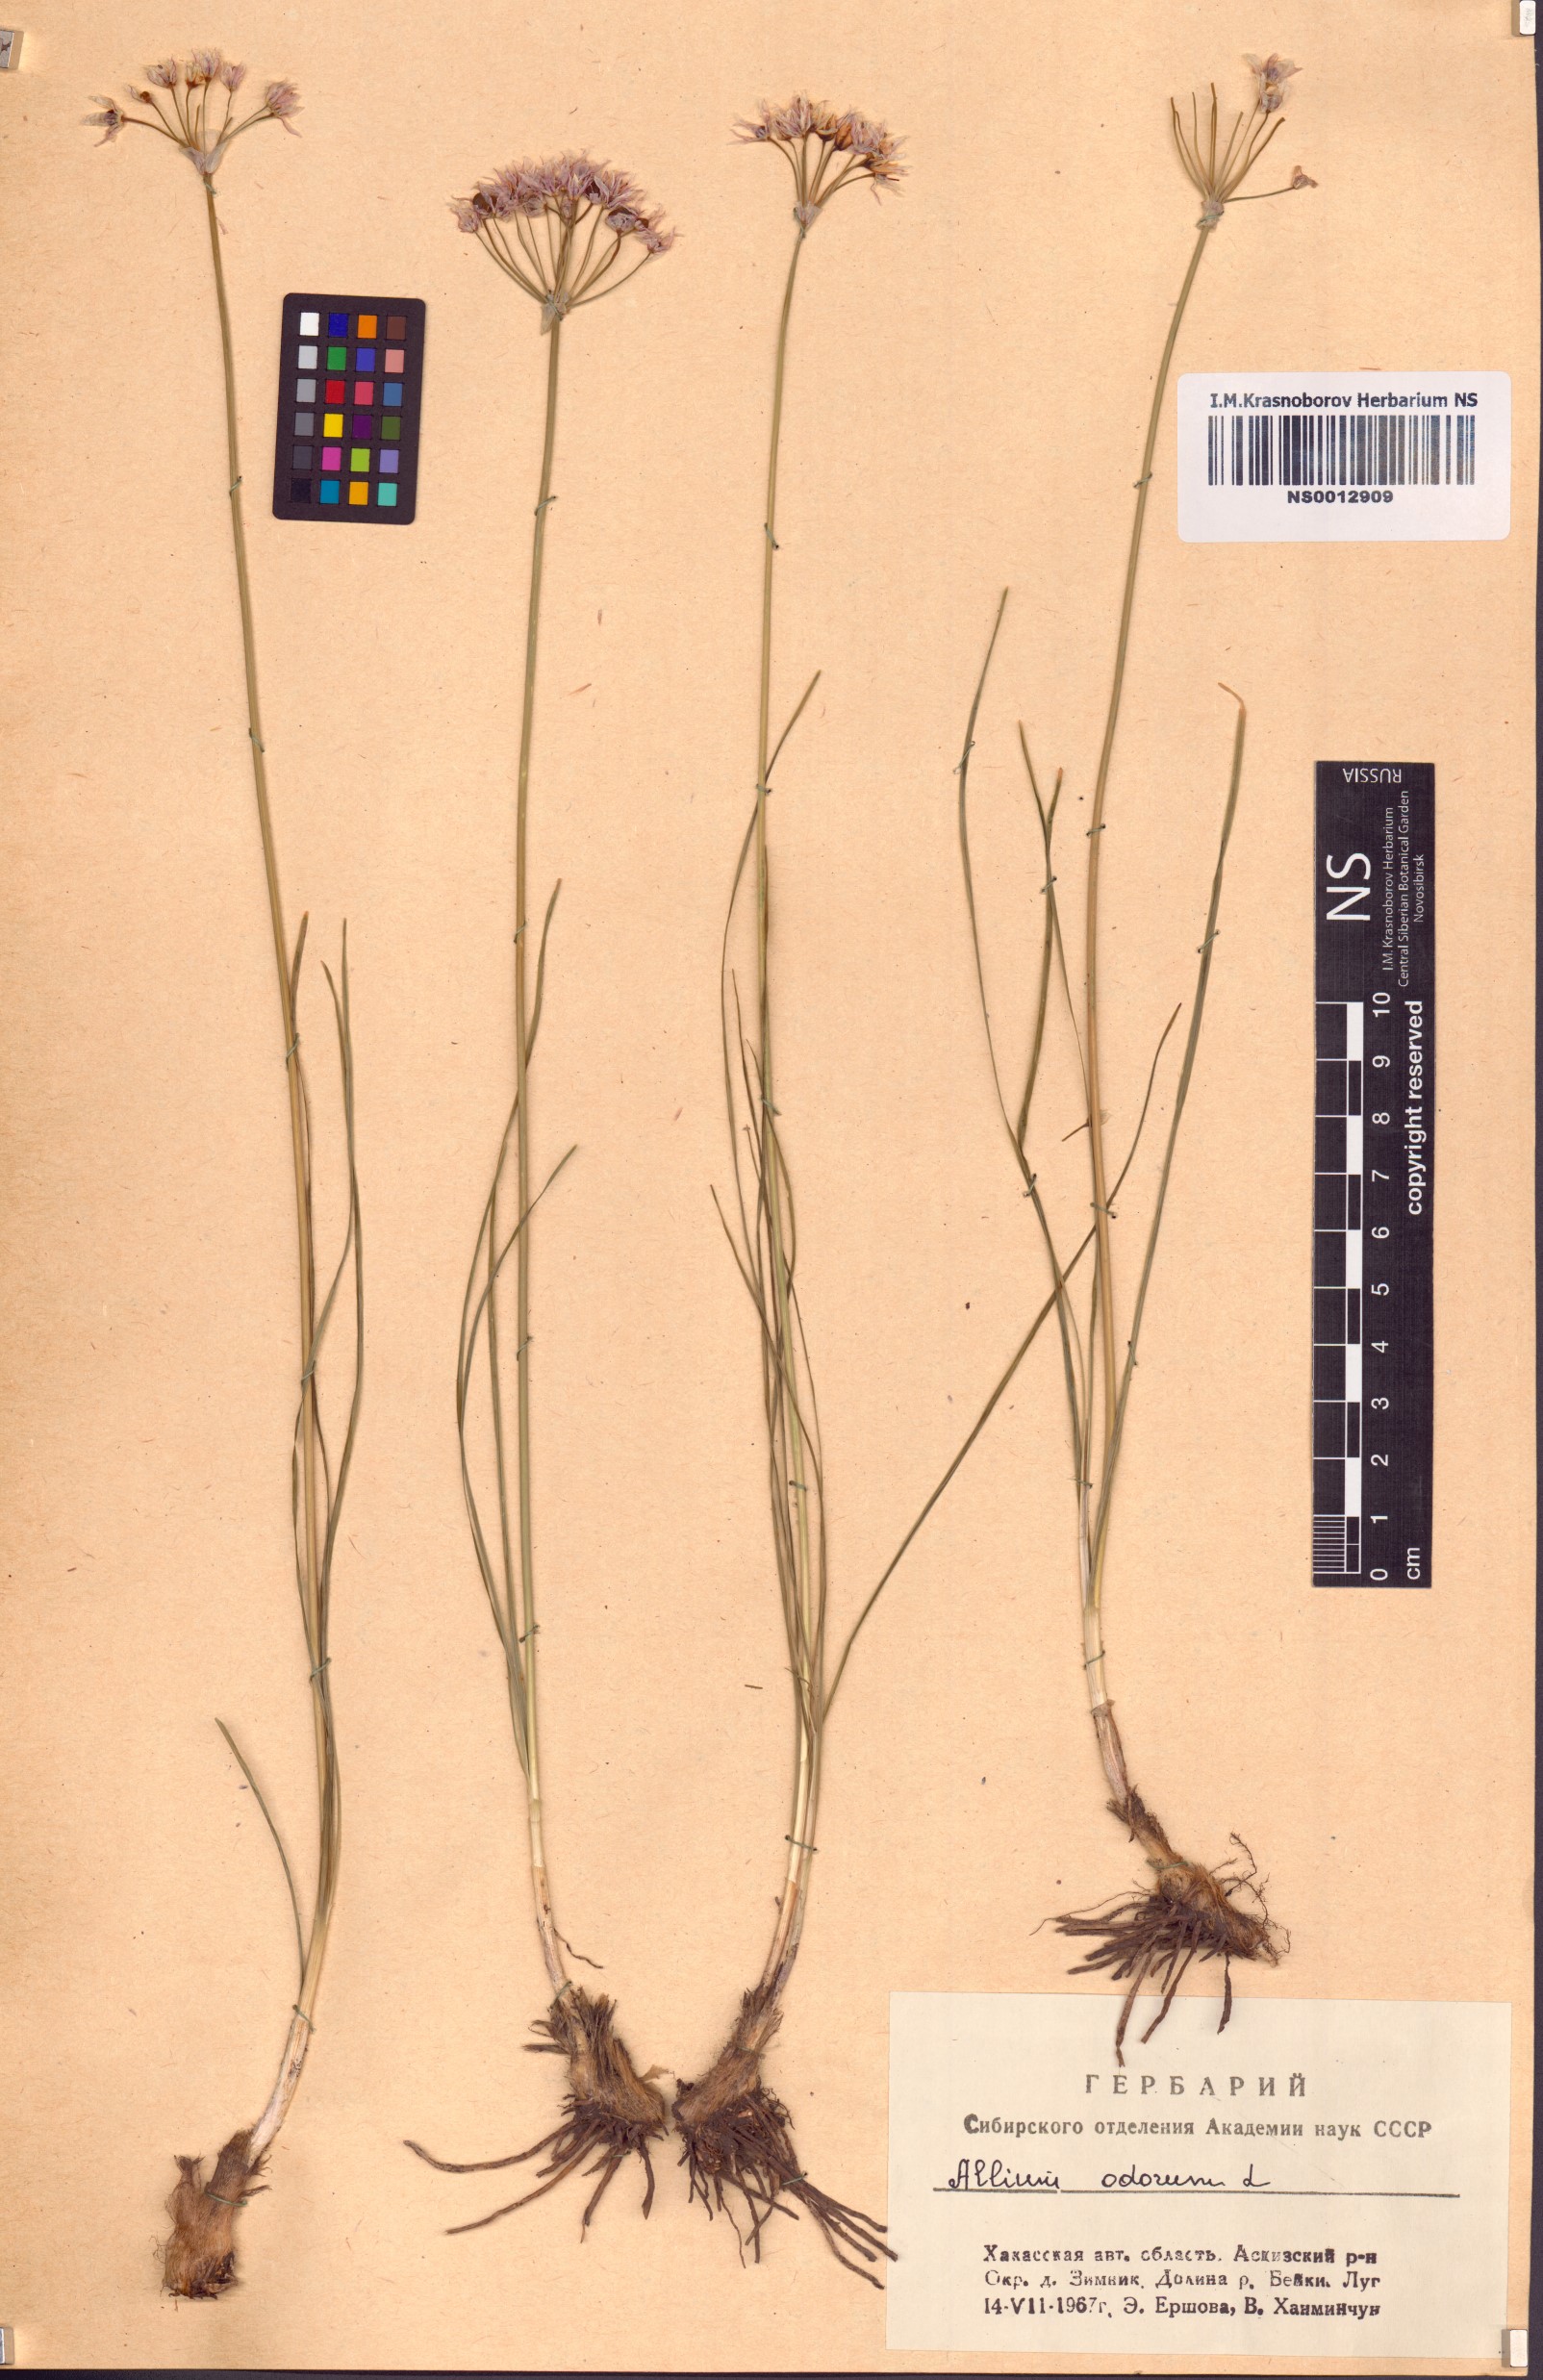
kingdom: Plantae
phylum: Tracheophyta
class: Liliopsida
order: Asparagales
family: Amaryllidaceae
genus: Allium
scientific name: Allium ramosum
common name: Fragrant garlic
